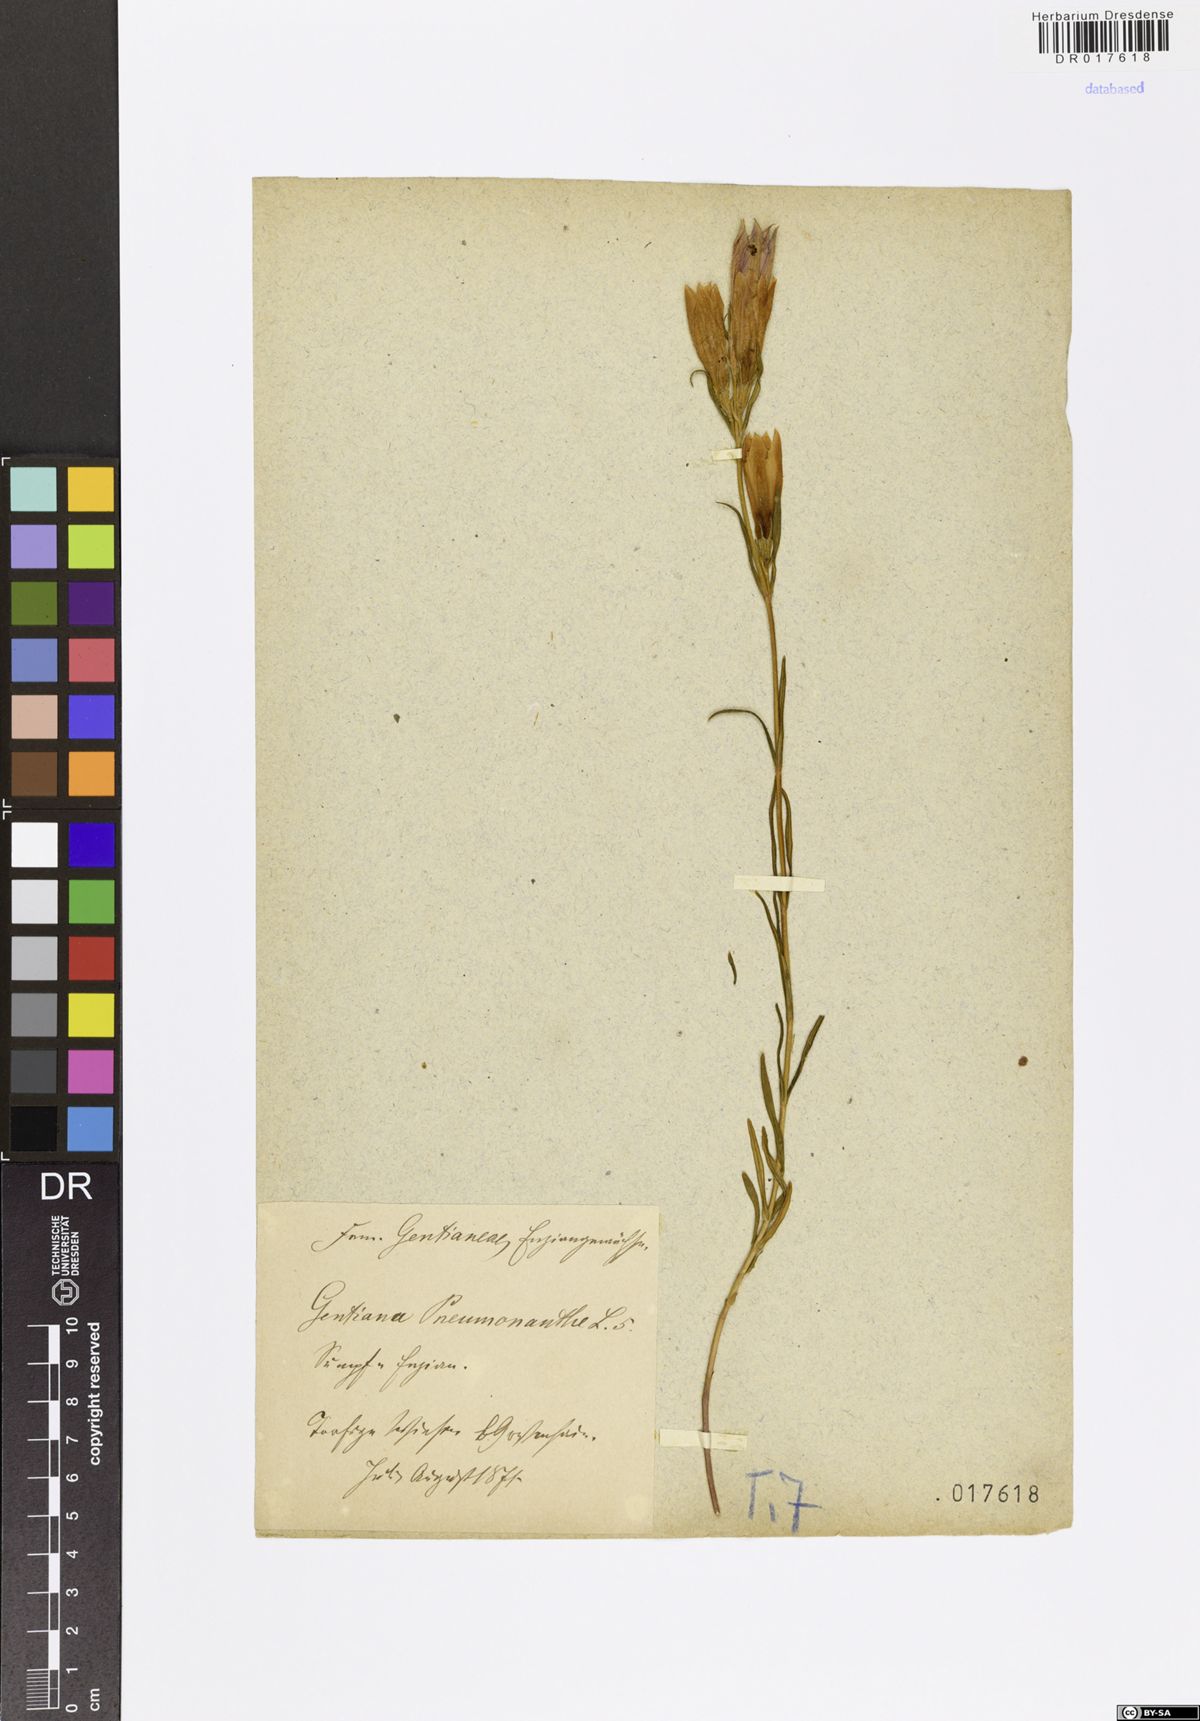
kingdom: Plantae
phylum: Tracheophyta
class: Magnoliopsida
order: Gentianales
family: Gentianaceae
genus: Gentiana
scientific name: Gentiana pneumonanthe
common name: Marsh gentian
